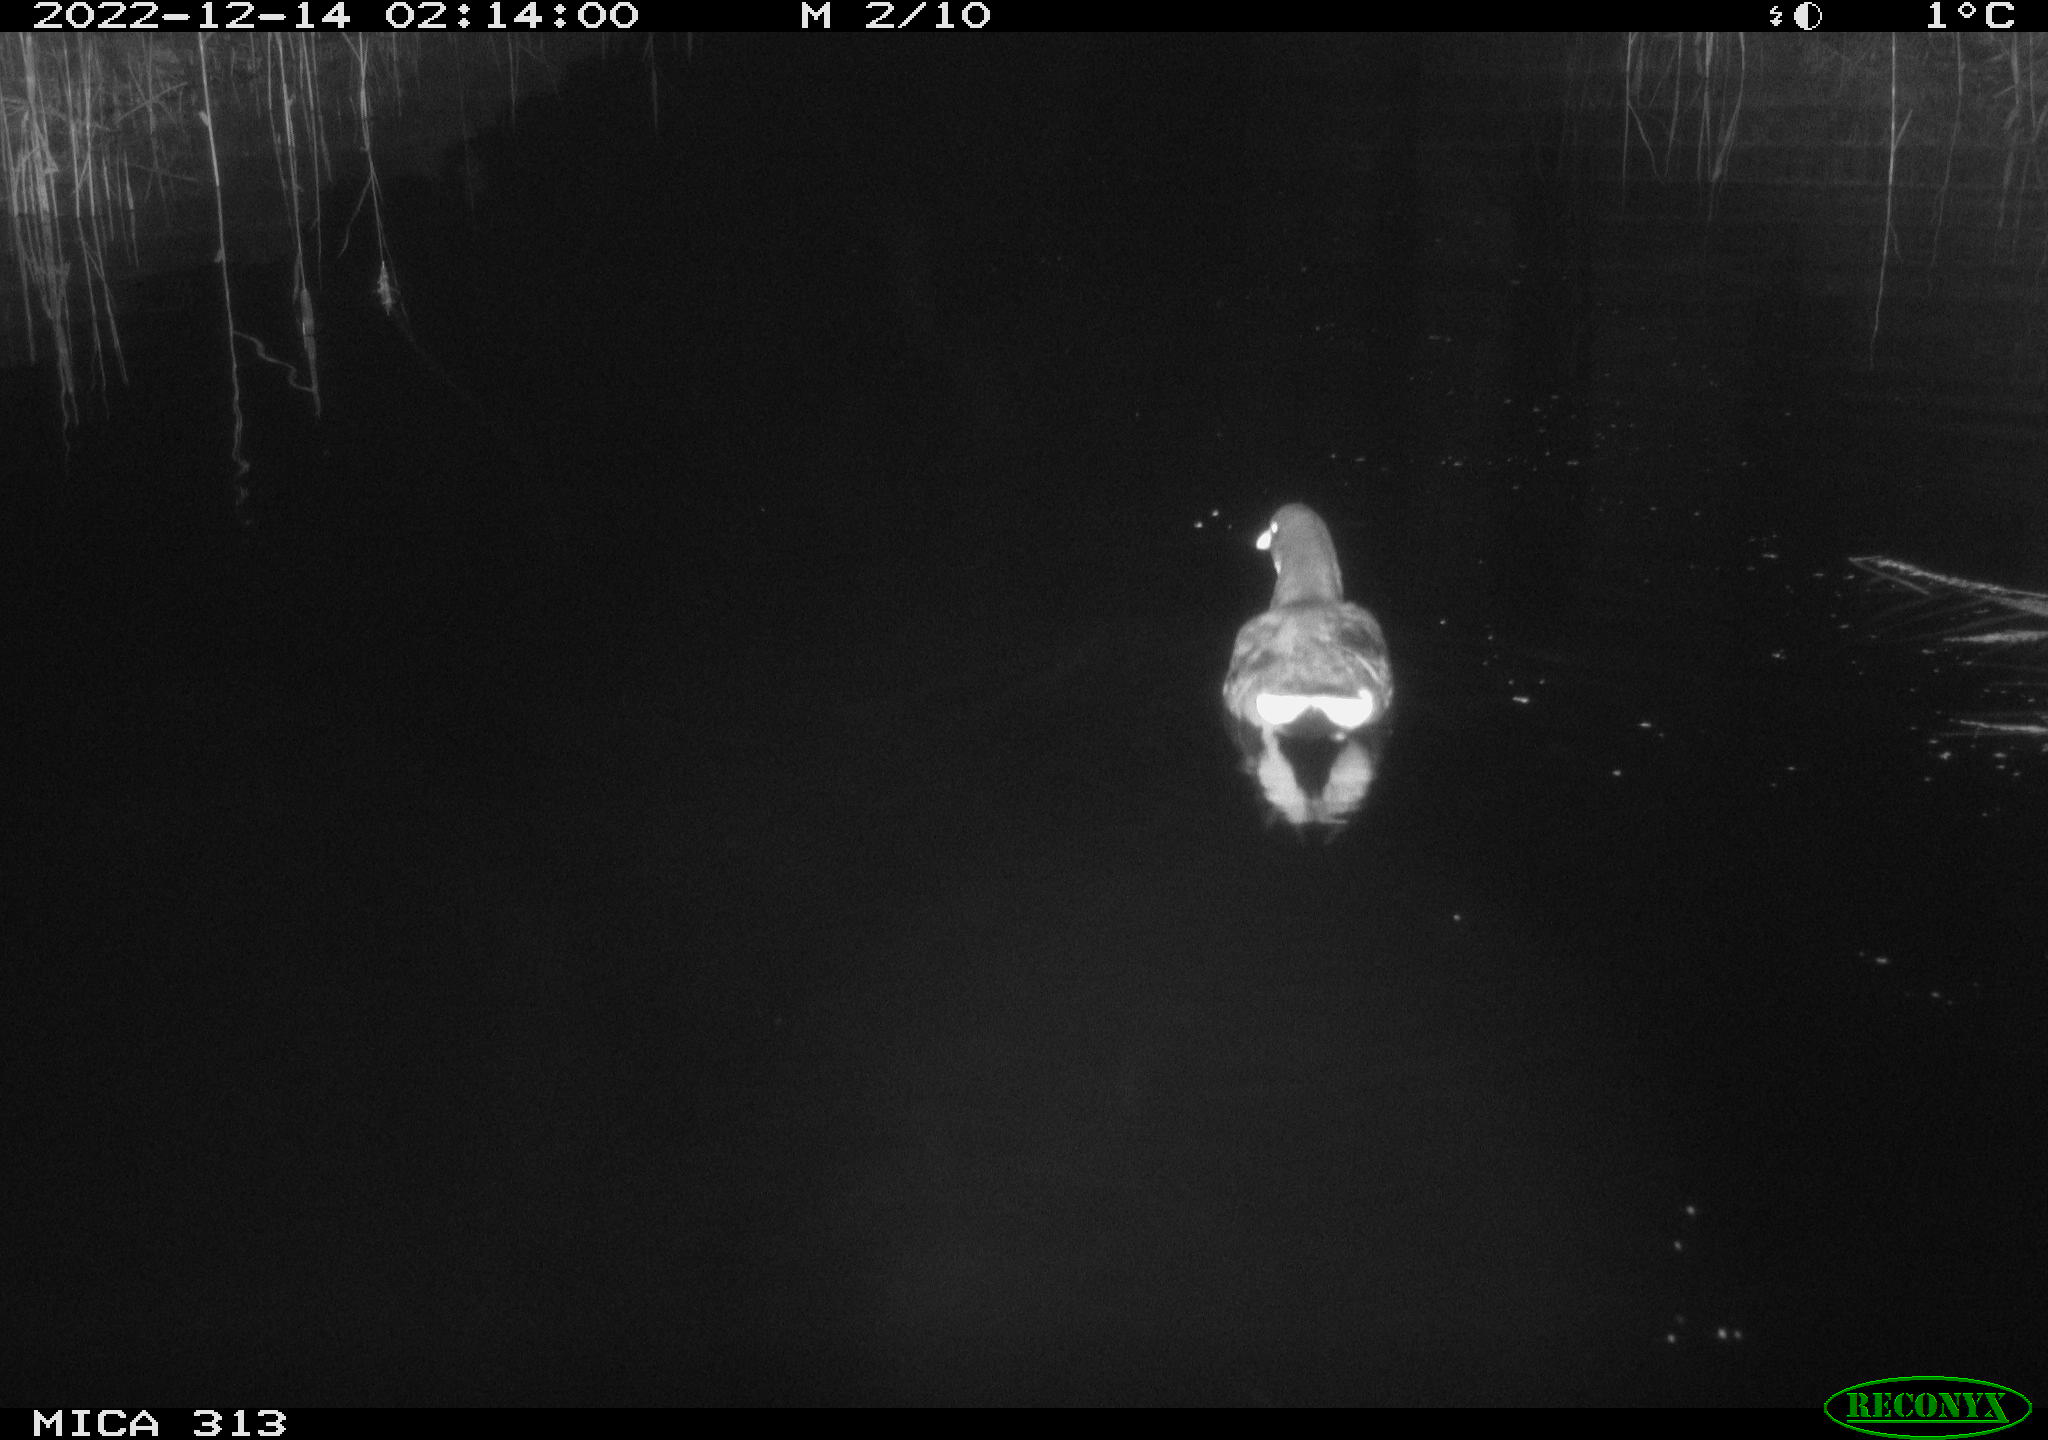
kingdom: Animalia
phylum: Chordata
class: Aves
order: Gruiformes
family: Rallidae
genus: Gallinula
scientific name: Gallinula chloropus
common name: Common moorhen
